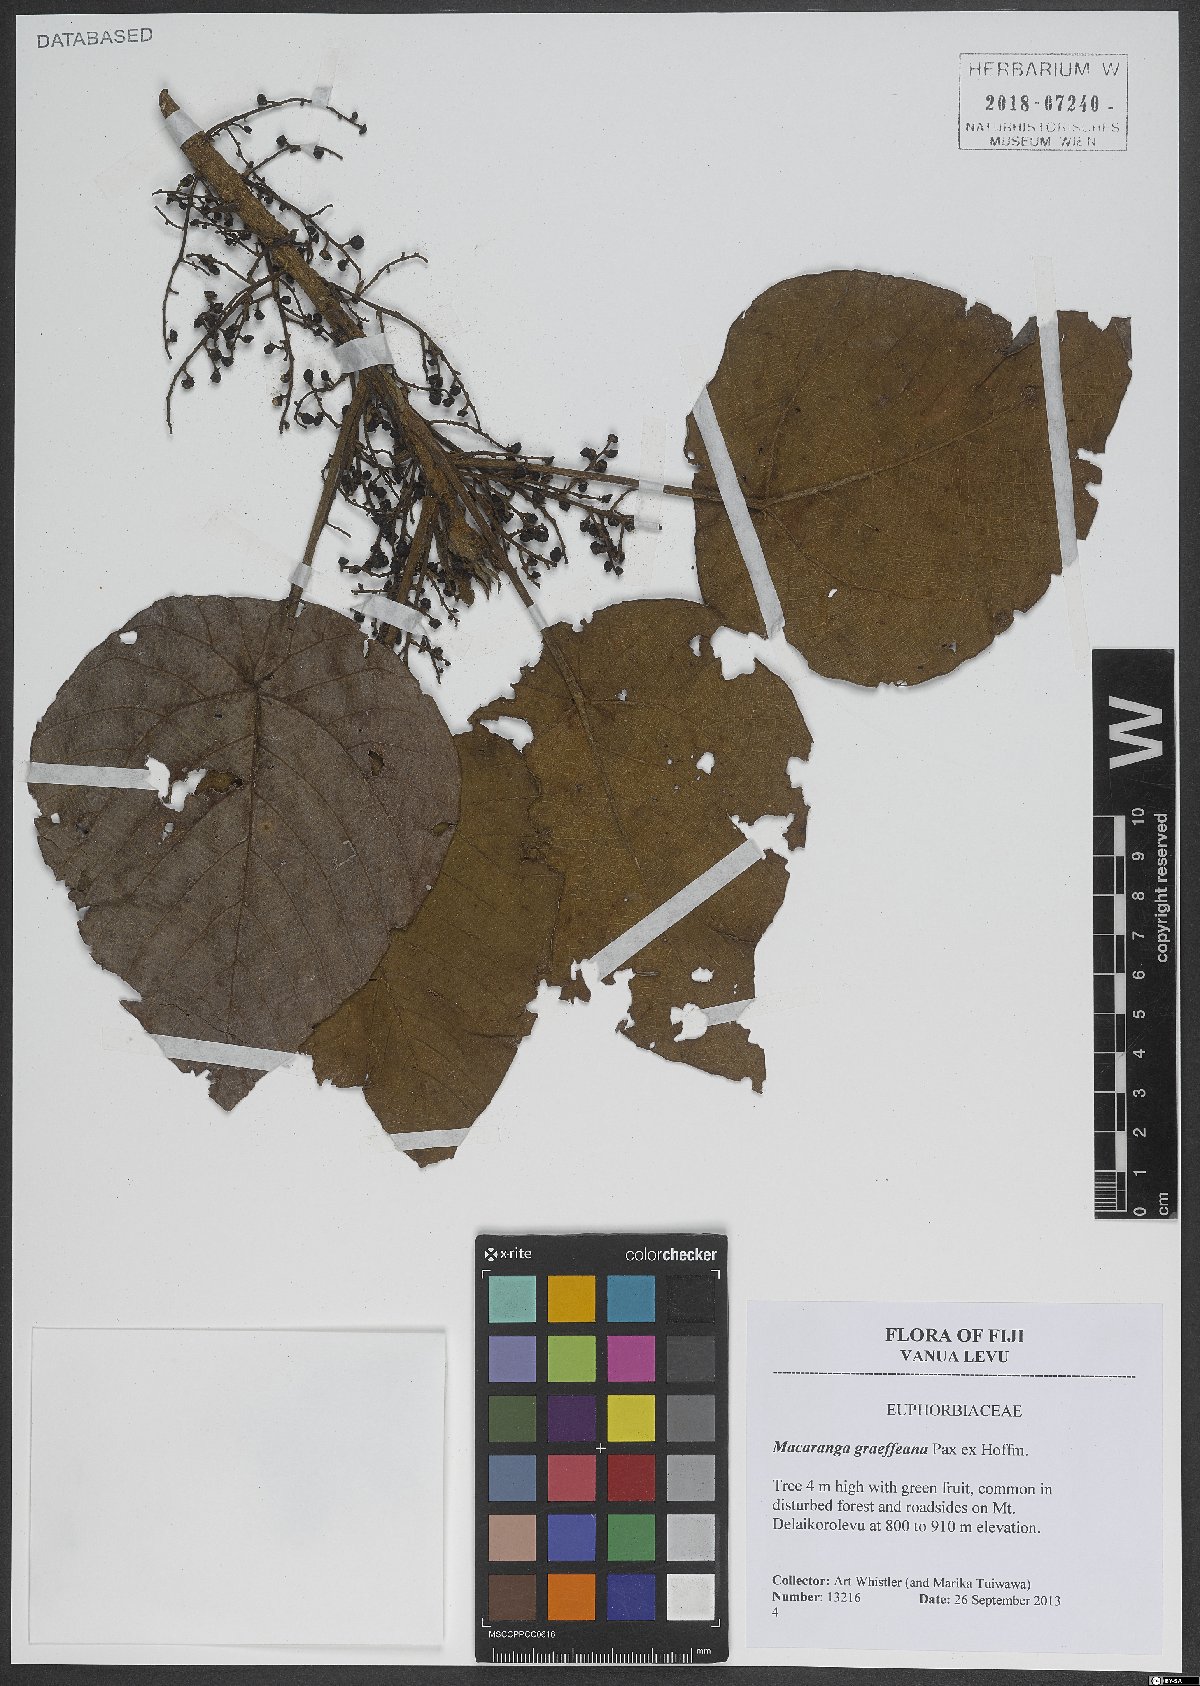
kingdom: Plantae
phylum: Tracheophyta
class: Magnoliopsida
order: Malpighiales
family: Euphorbiaceae
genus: Macaranga
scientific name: Macaranga graeffeana
